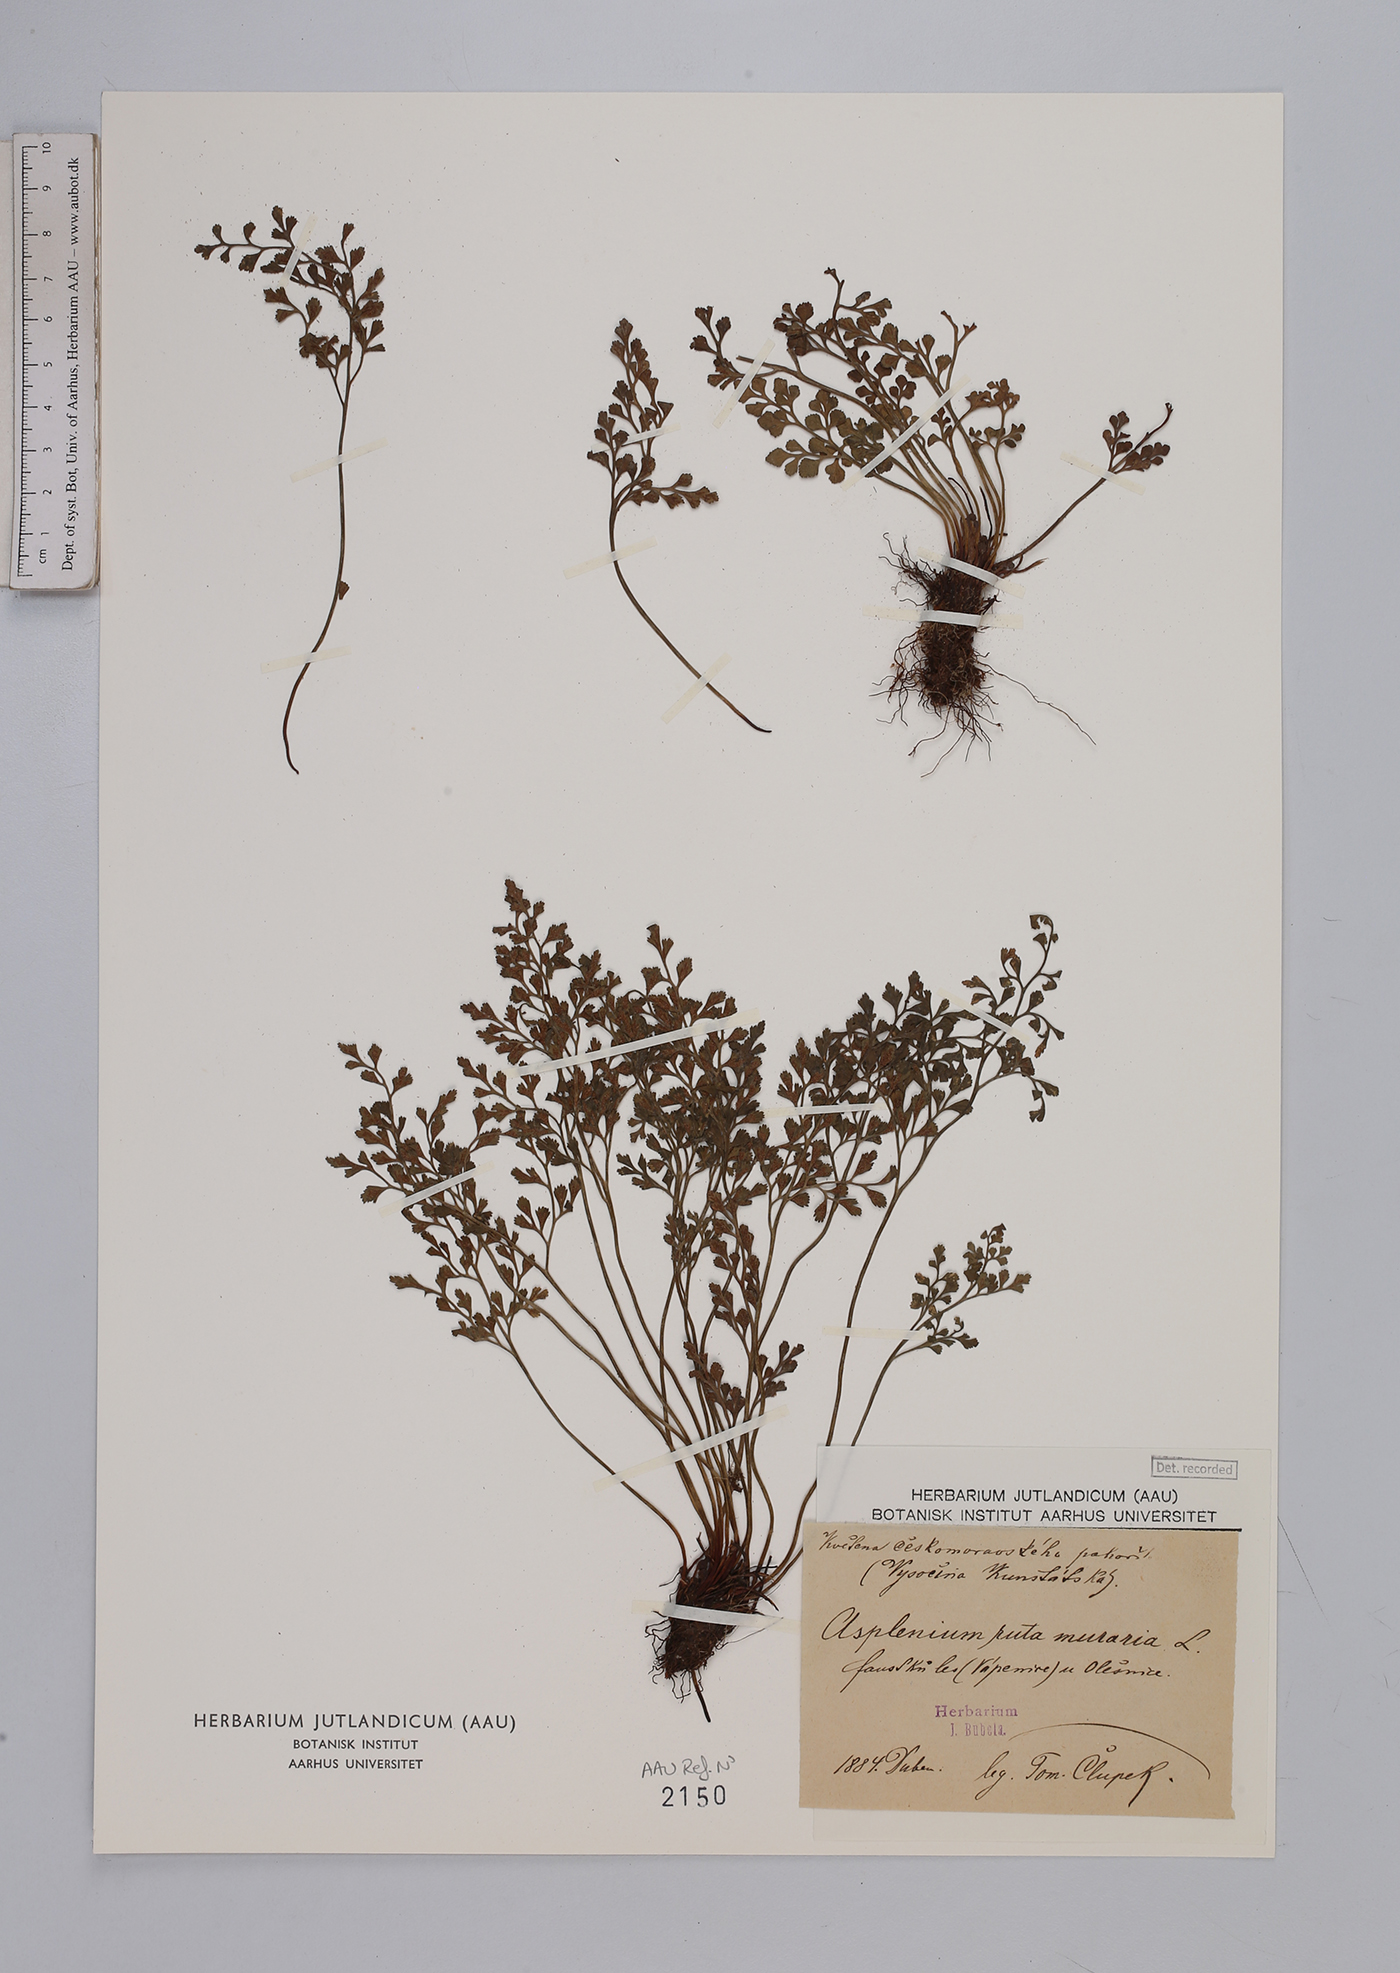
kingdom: Plantae
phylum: Tracheophyta
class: Polypodiopsida
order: Polypodiales
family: Aspleniaceae
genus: Asplenium
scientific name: Asplenium ruta-muraria
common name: Wall-rue
